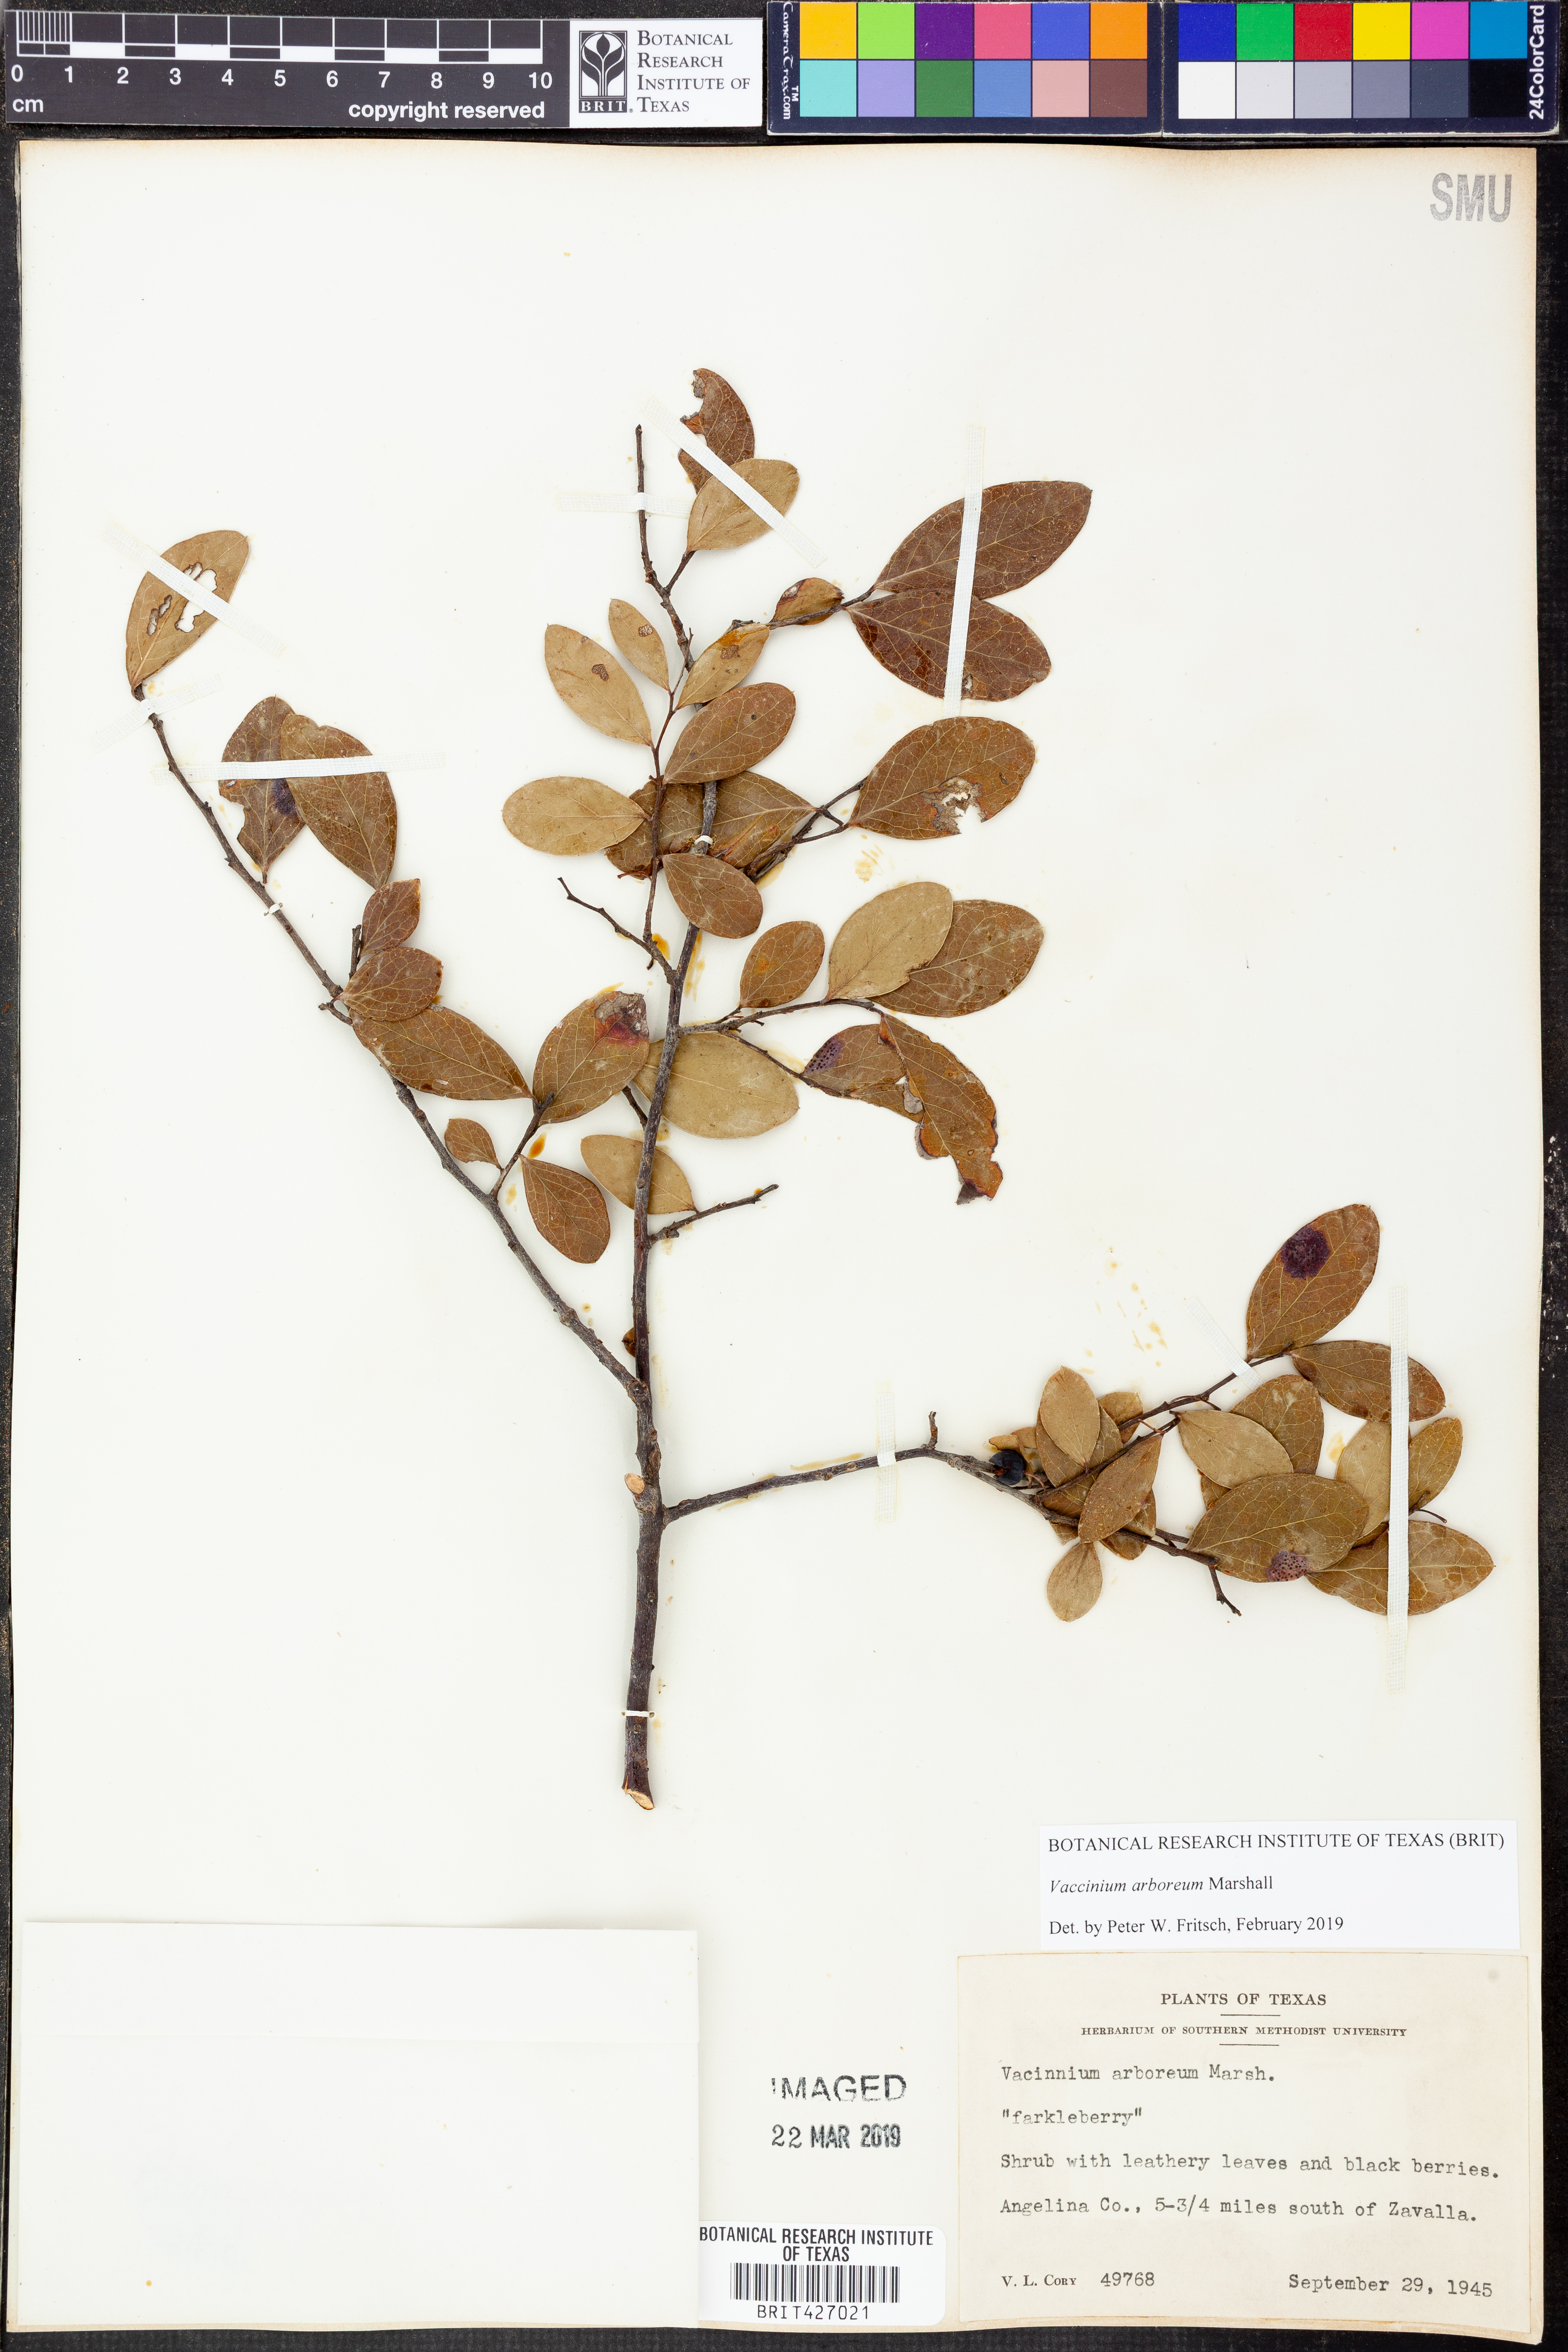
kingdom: Plantae
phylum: Tracheophyta
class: Magnoliopsida
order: Ericales
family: Ericaceae
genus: Vaccinium
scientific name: Vaccinium arboreum
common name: Farkleberry
